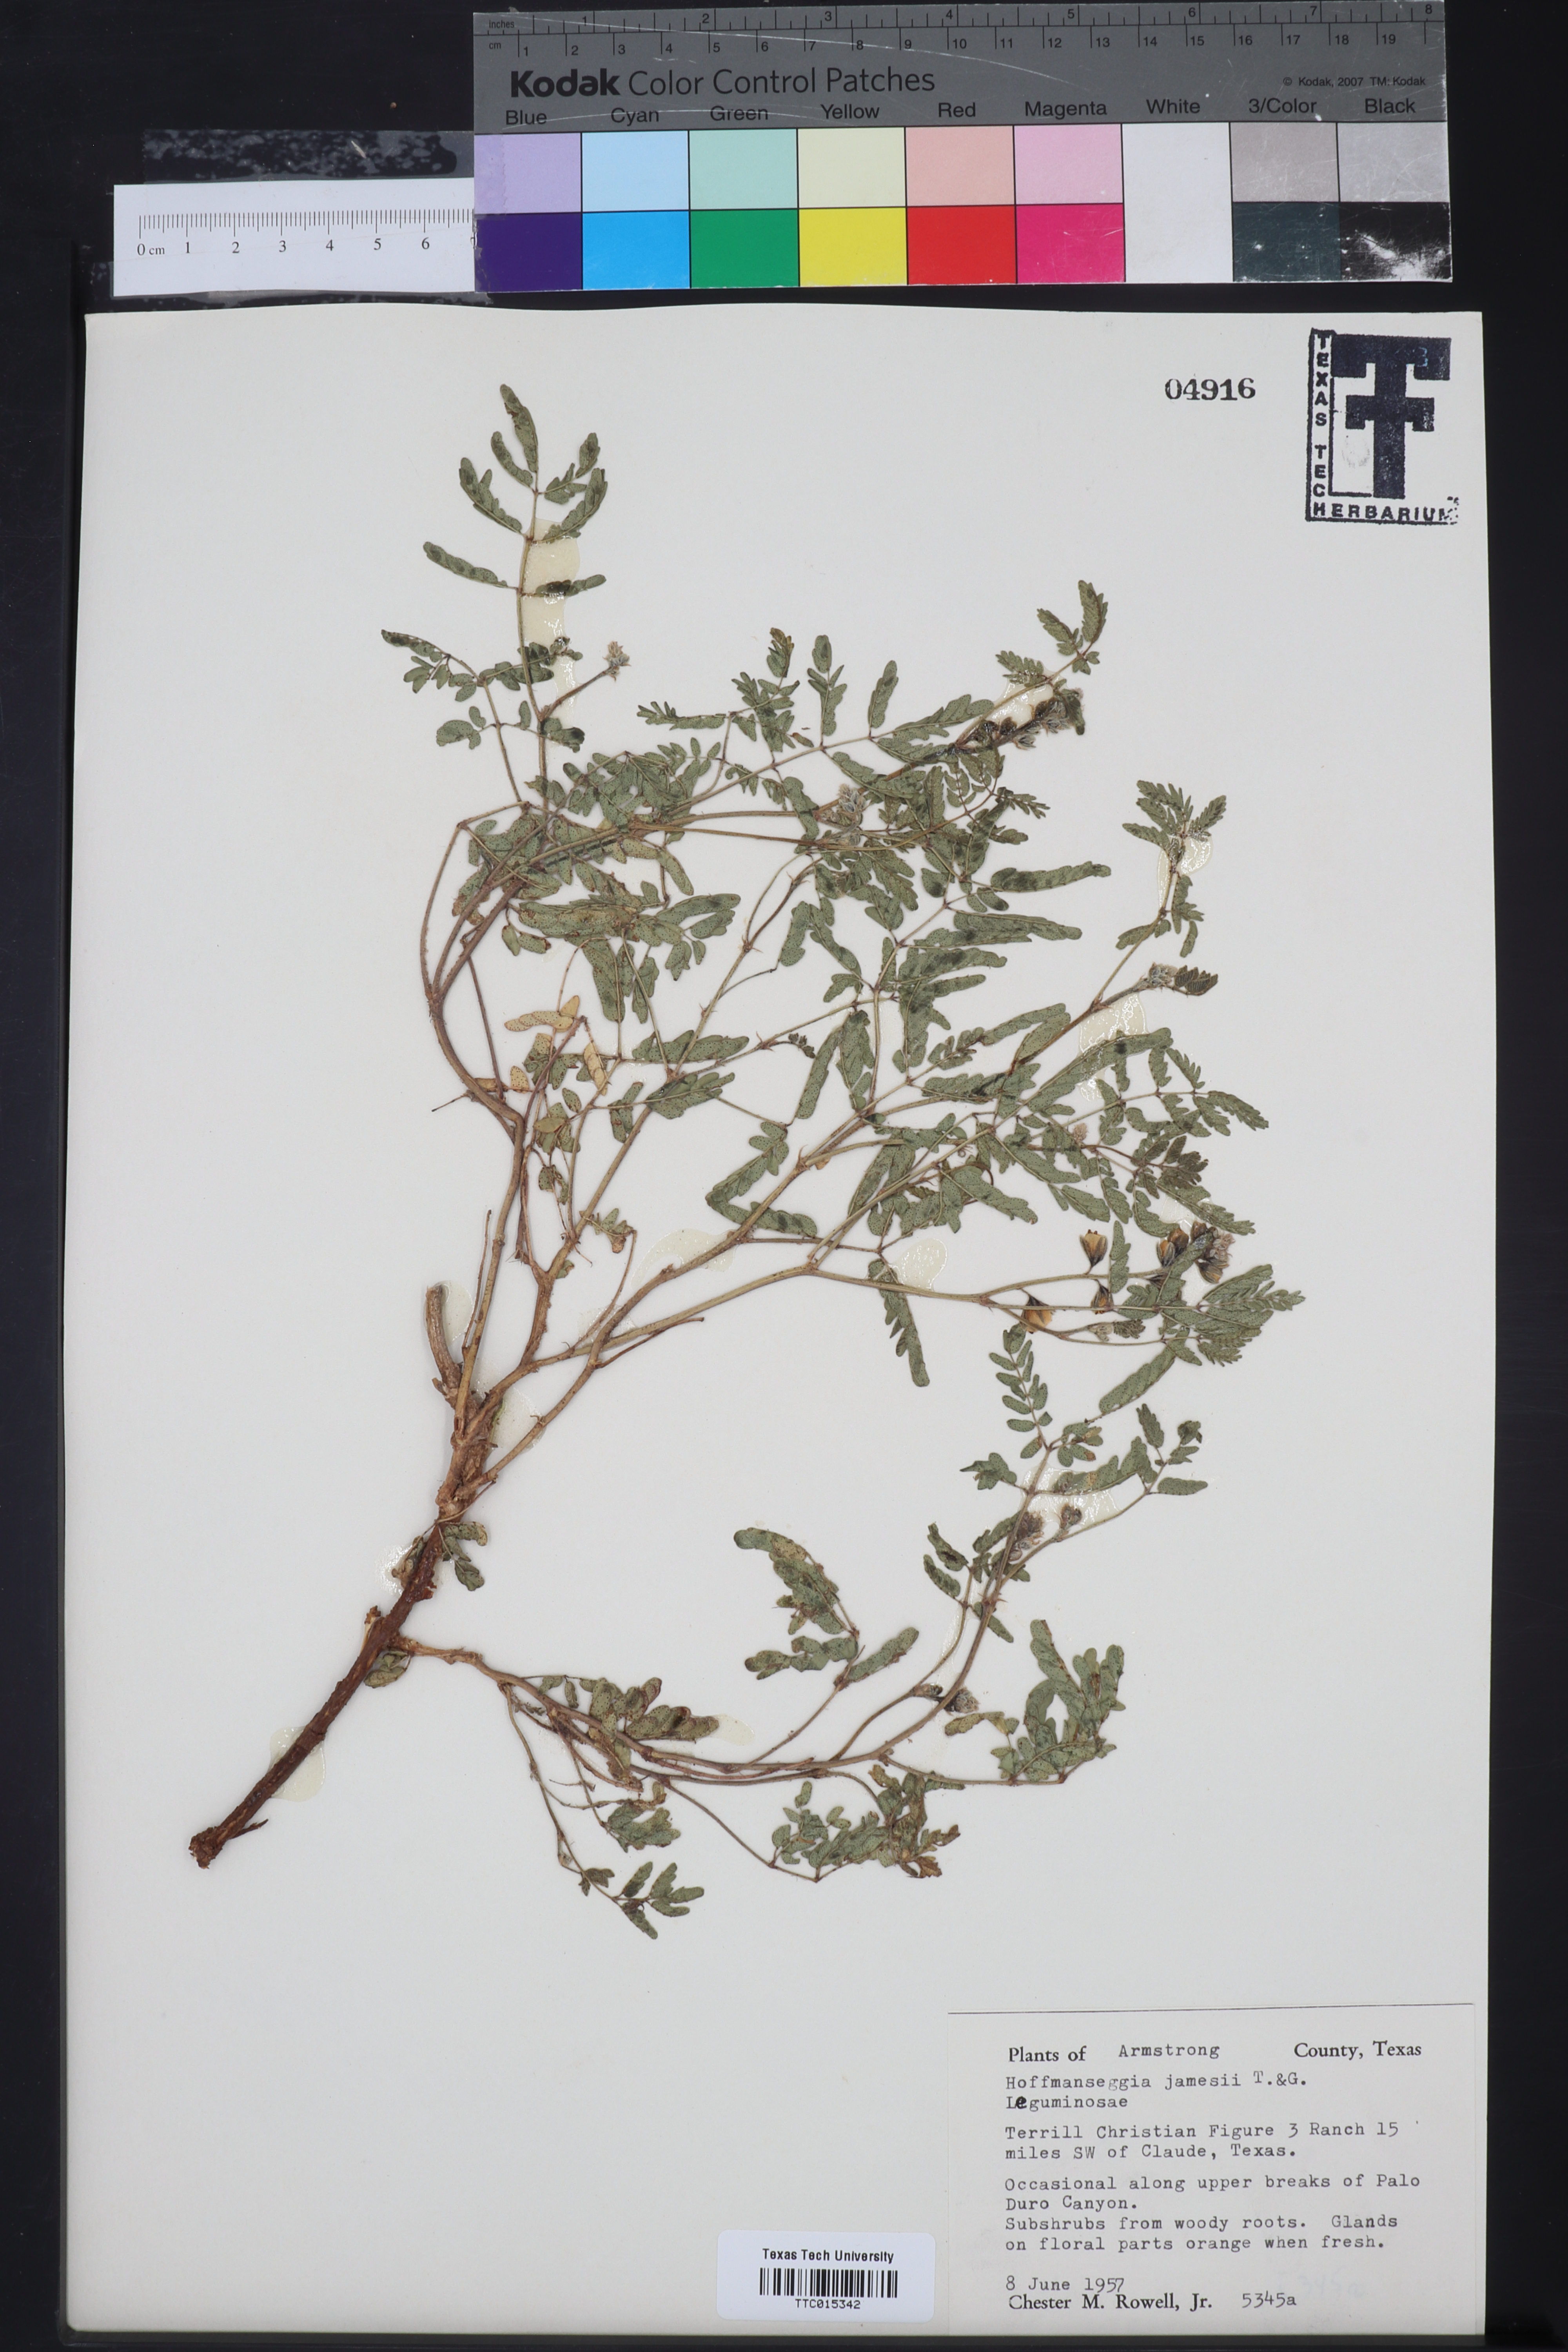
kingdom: Plantae
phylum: Tracheophyta
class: Magnoliopsida
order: Fabales
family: Fabaceae
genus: Pomaria
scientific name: Pomaria jamesii
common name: James' caesalpinia
